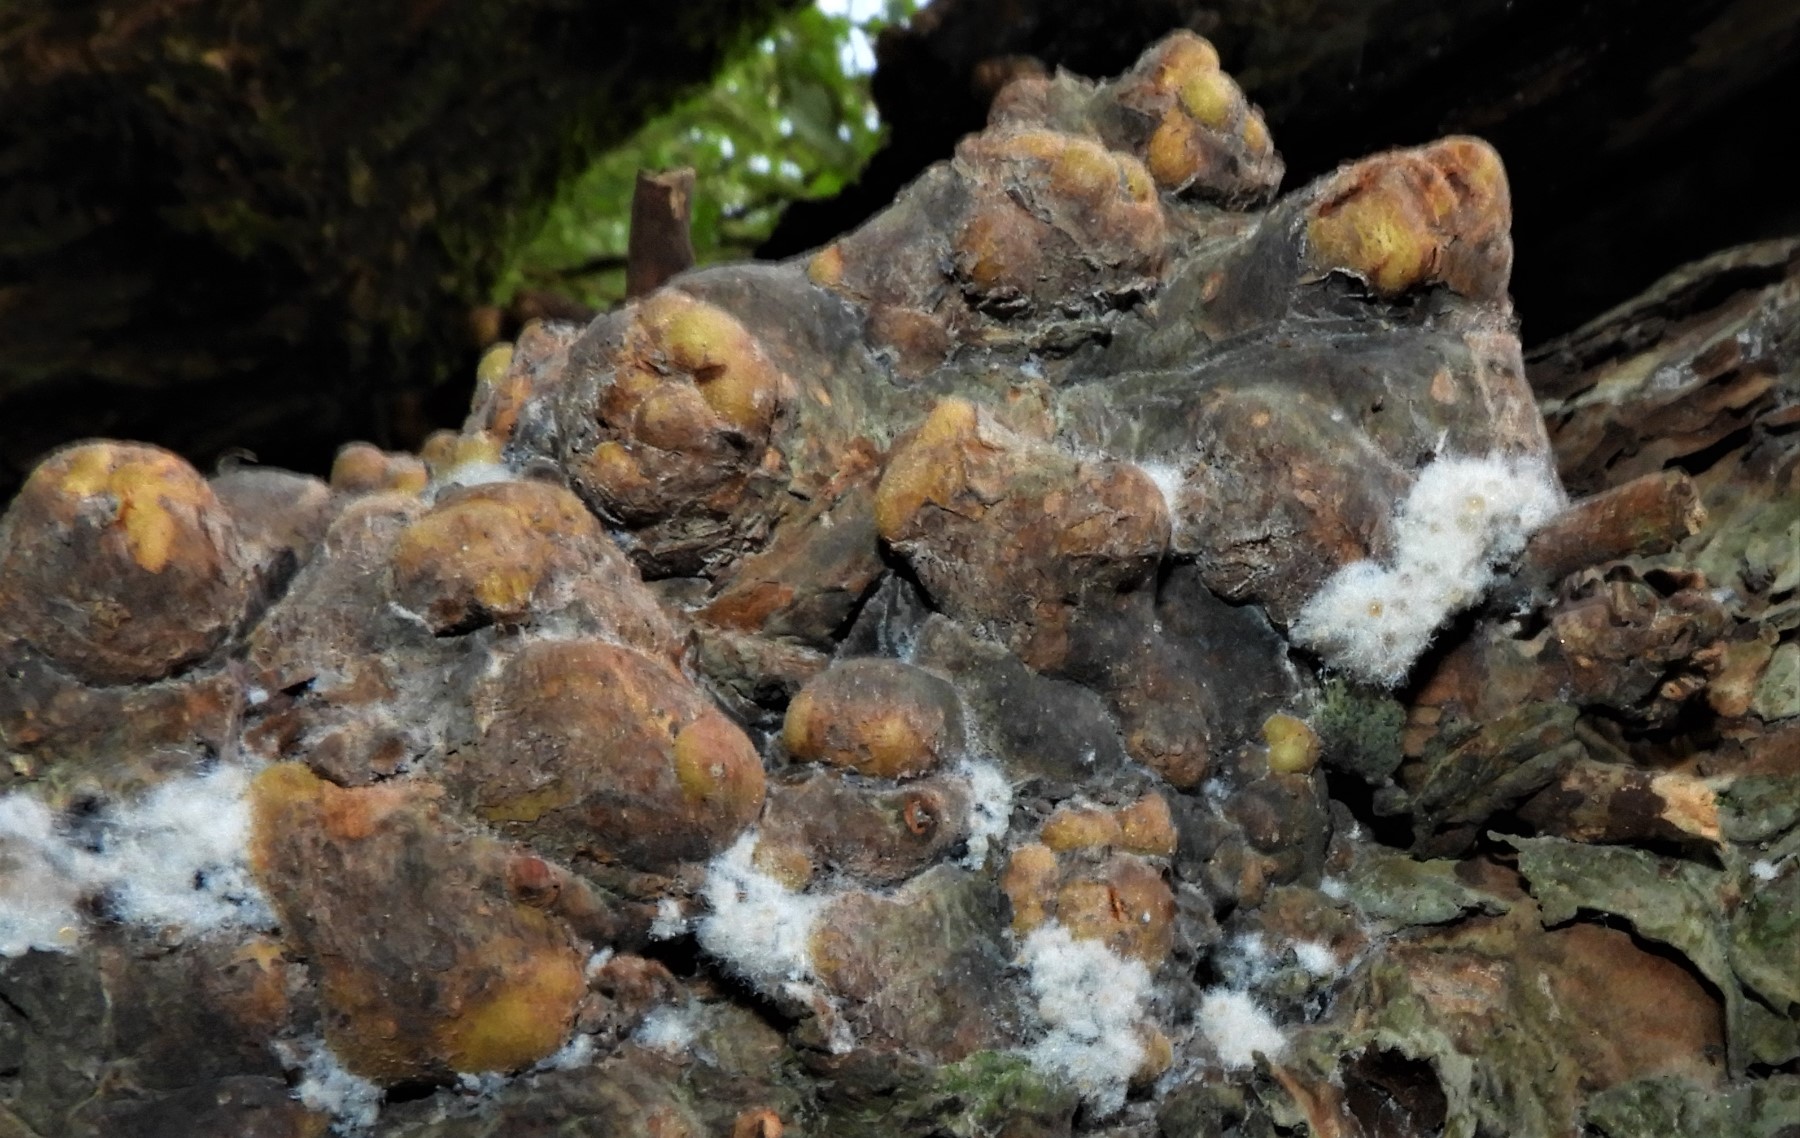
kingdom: Fungi
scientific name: Fungi
